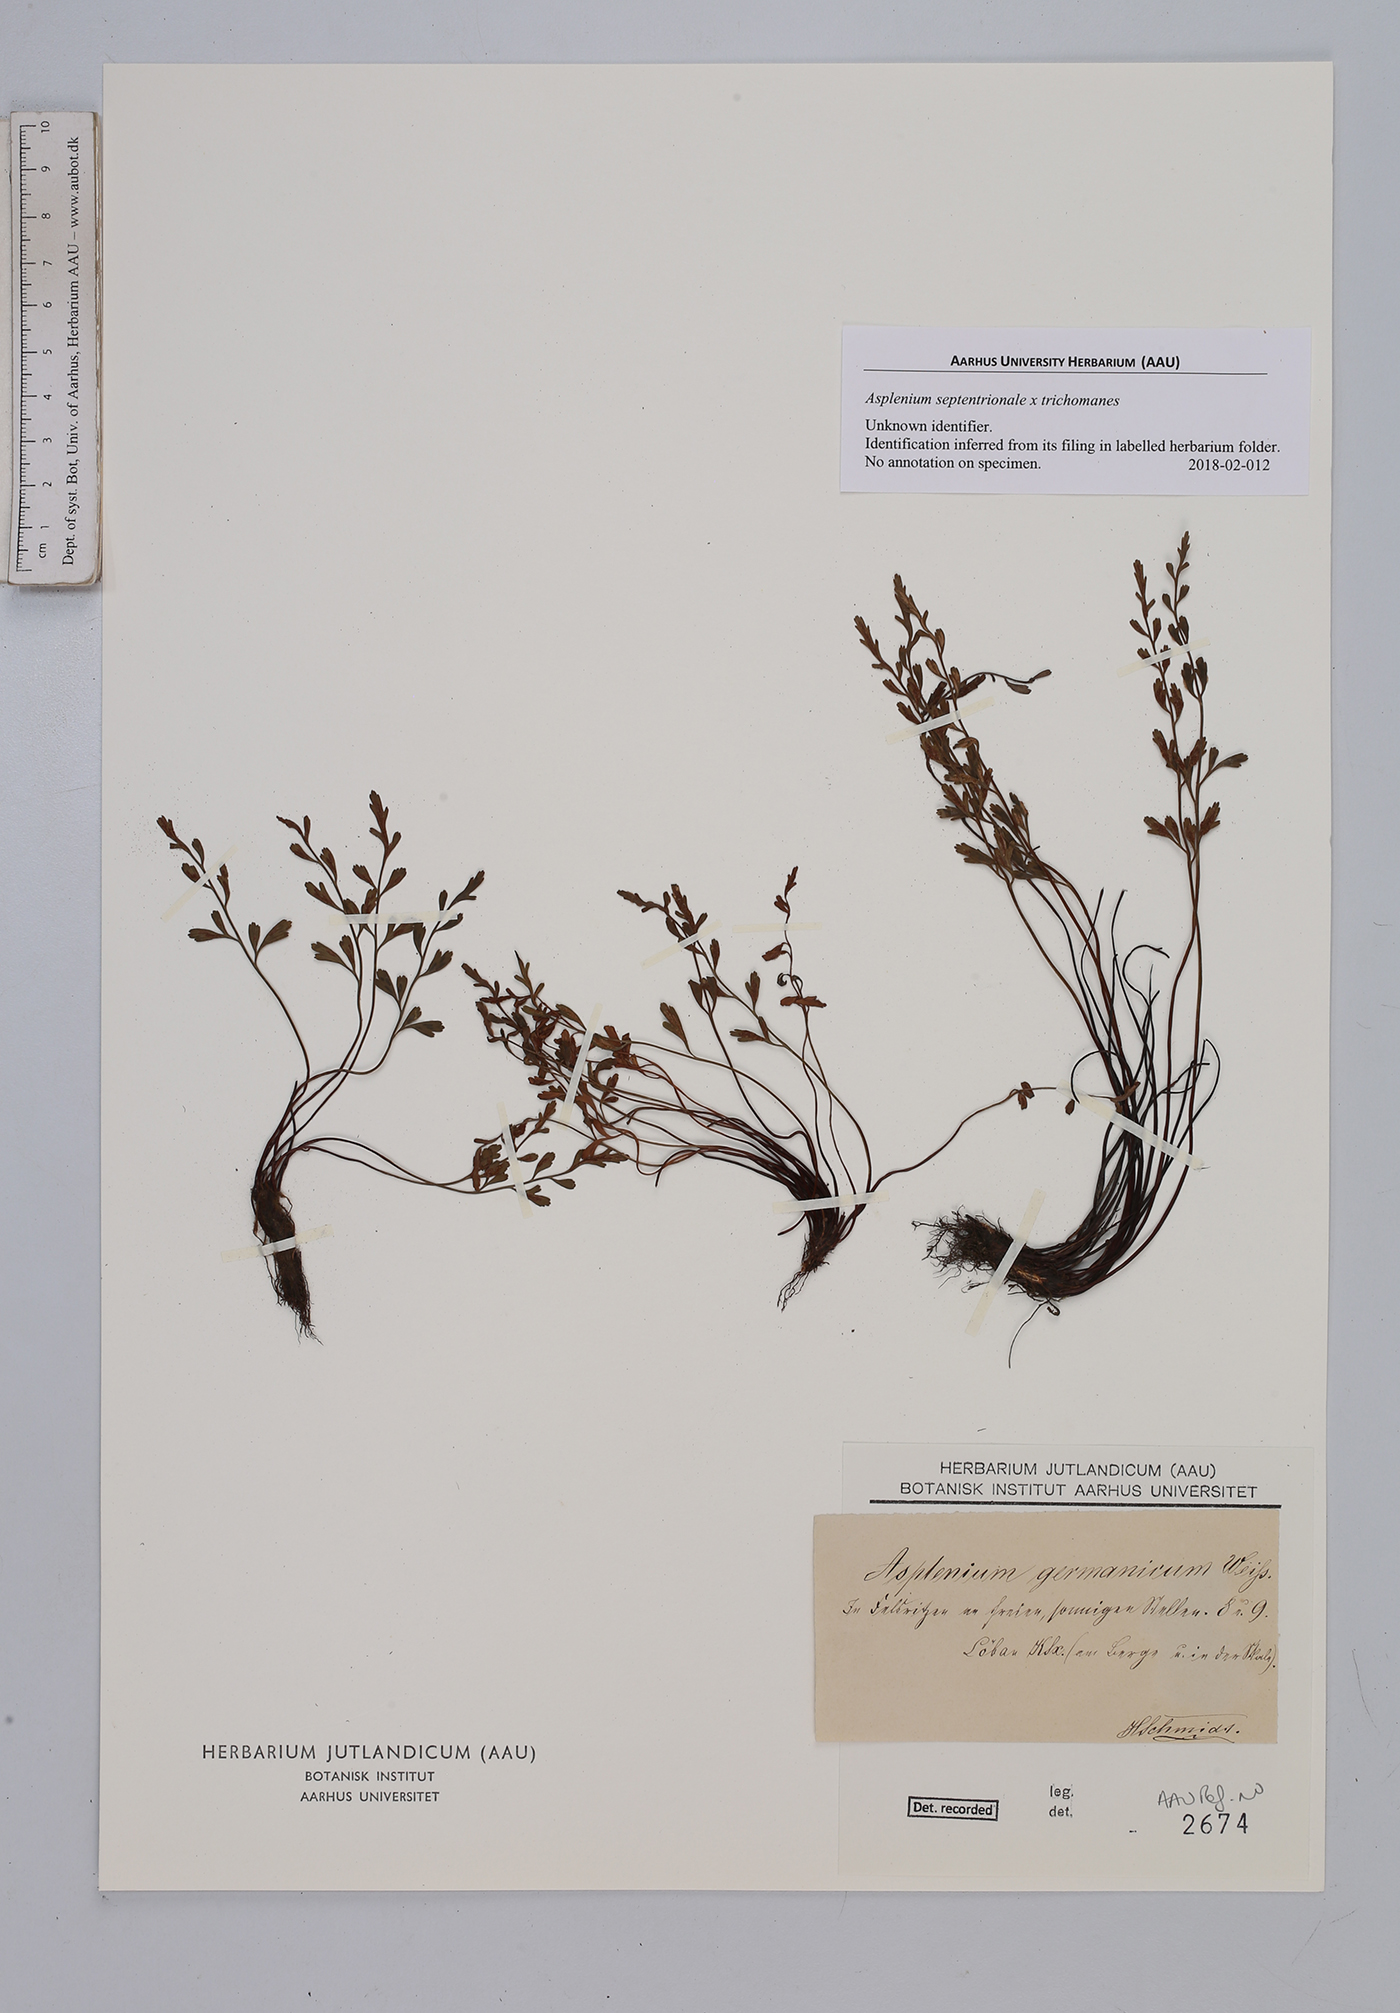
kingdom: Plantae
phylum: Tracheophyta
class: Polypodiopsida
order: Polypodiales
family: Aspleniaceae
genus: Asplenium
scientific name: Asplenium
